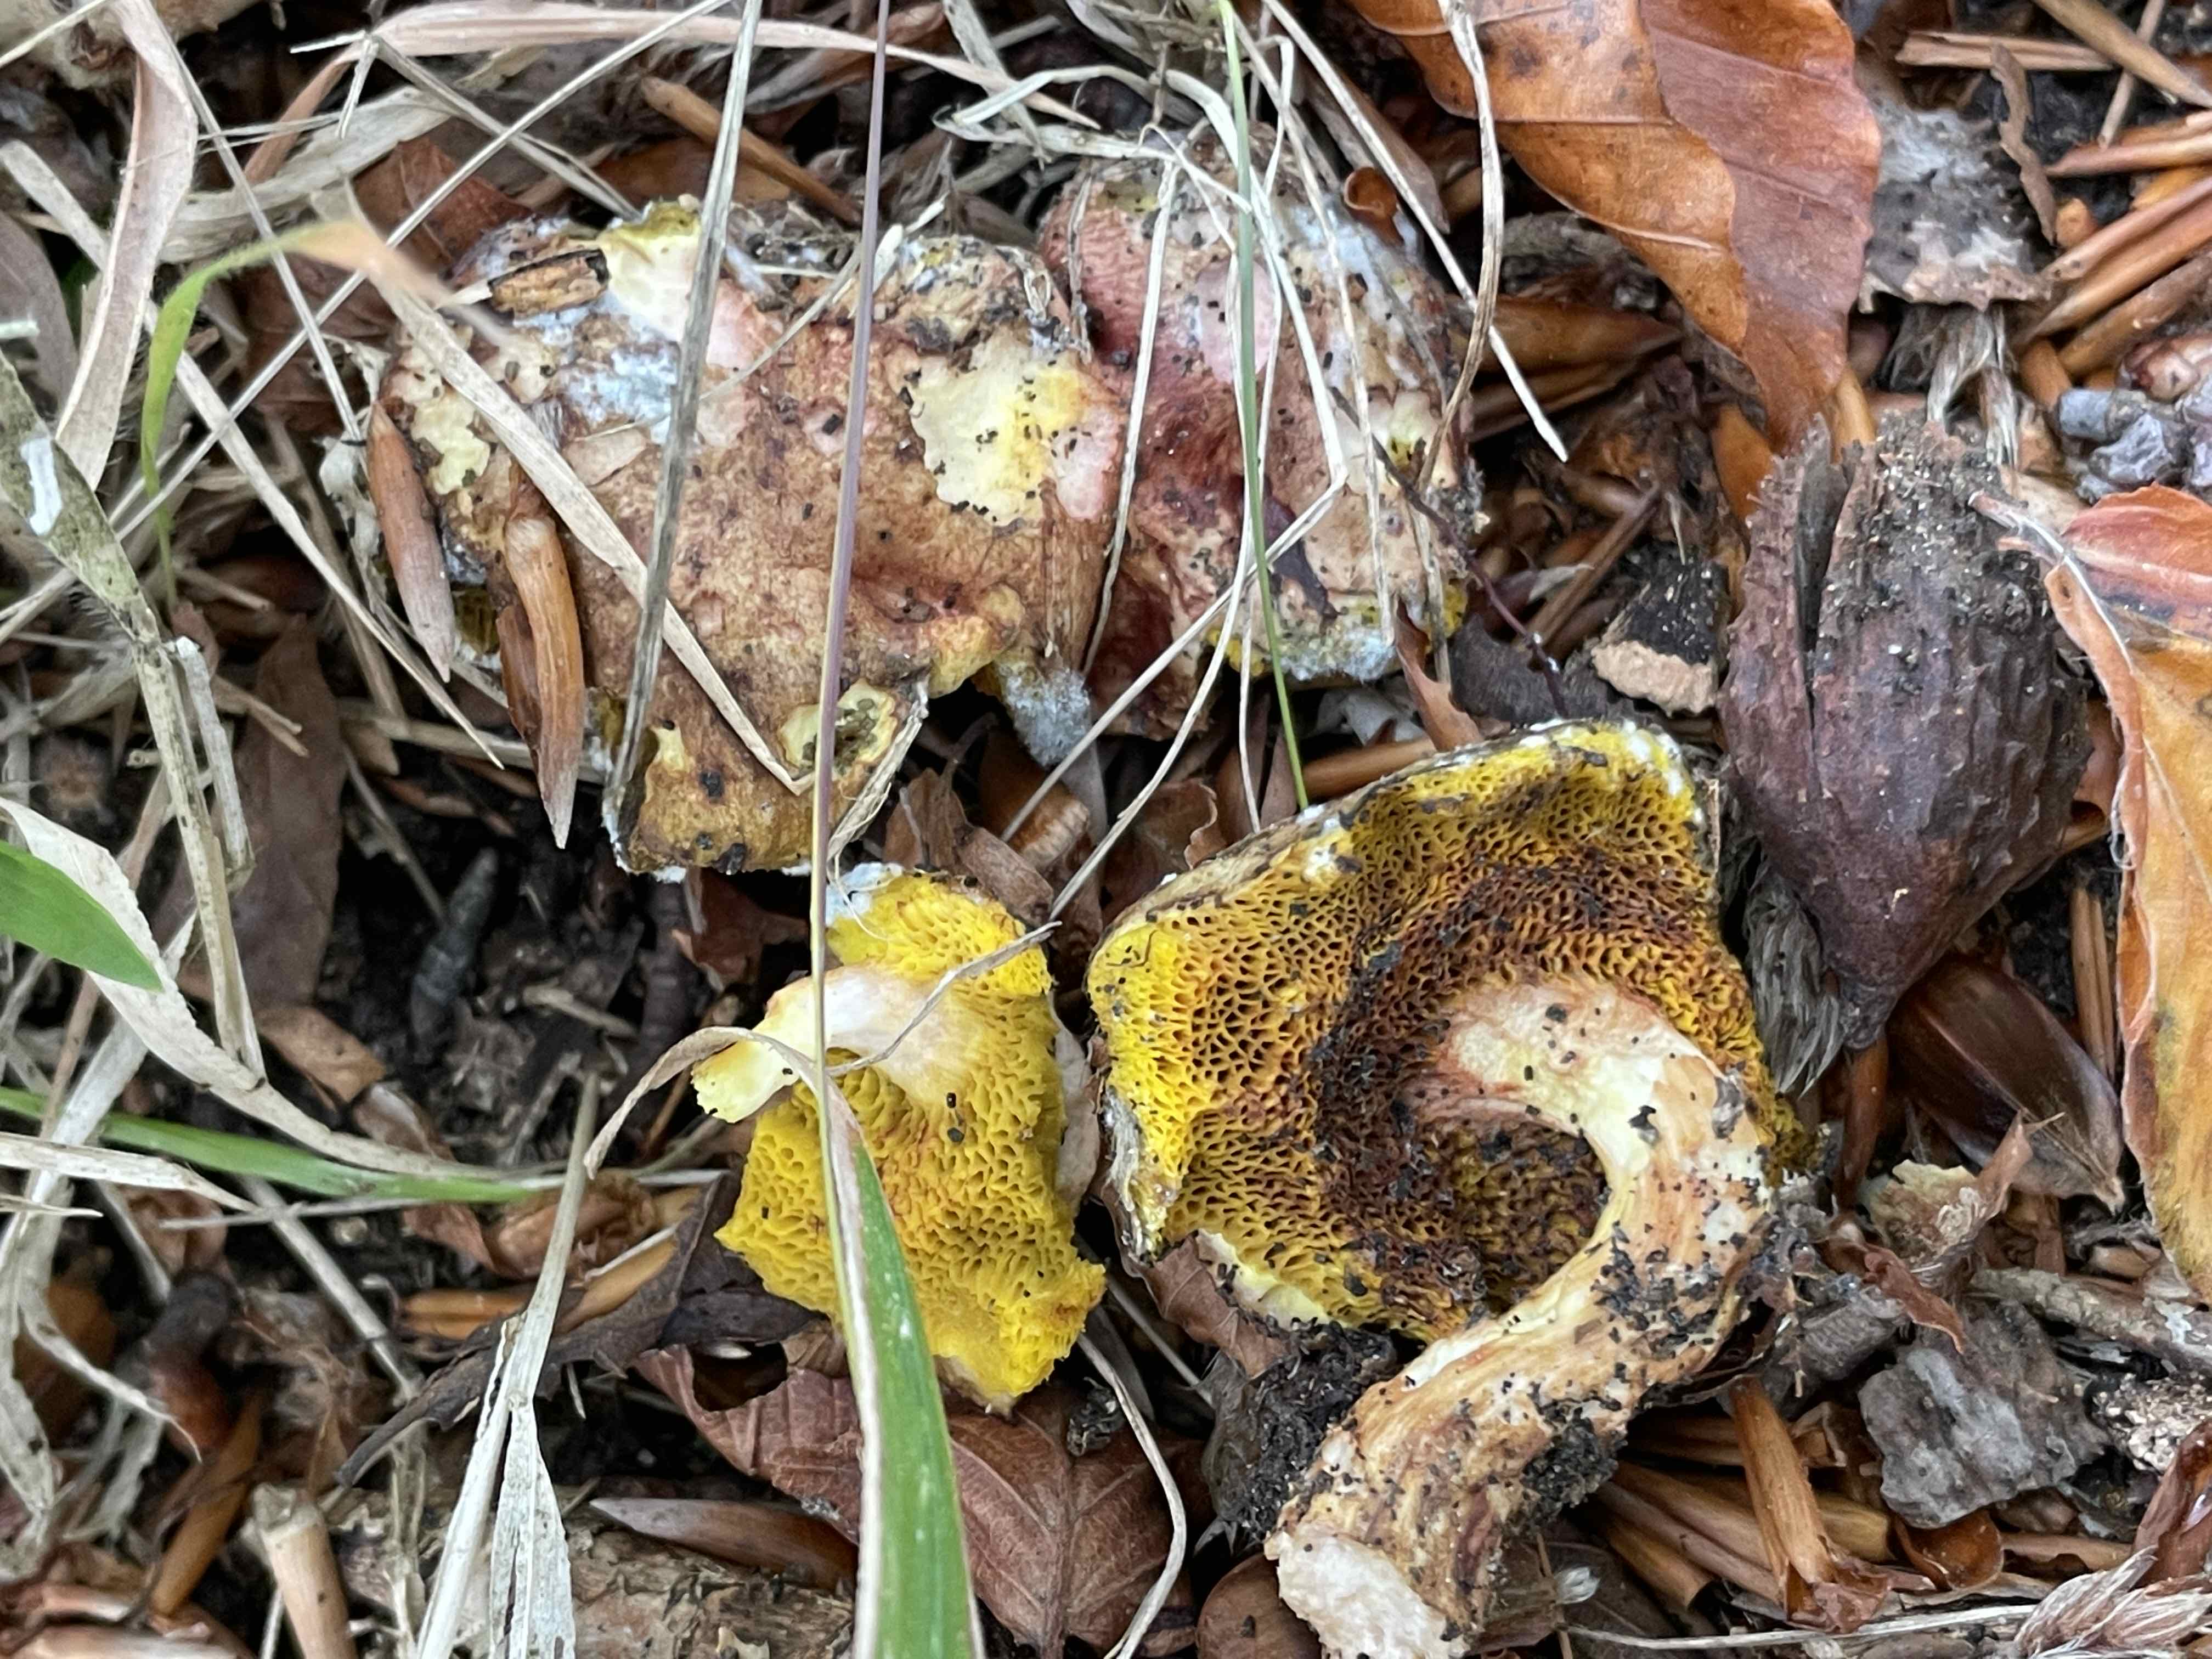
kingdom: Fungi
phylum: Basidiomycota
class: Agaricomycetes
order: Boletales
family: Boletaceae
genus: Aureoboletus
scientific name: Aureoboletus gentilis
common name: guldrørhat
